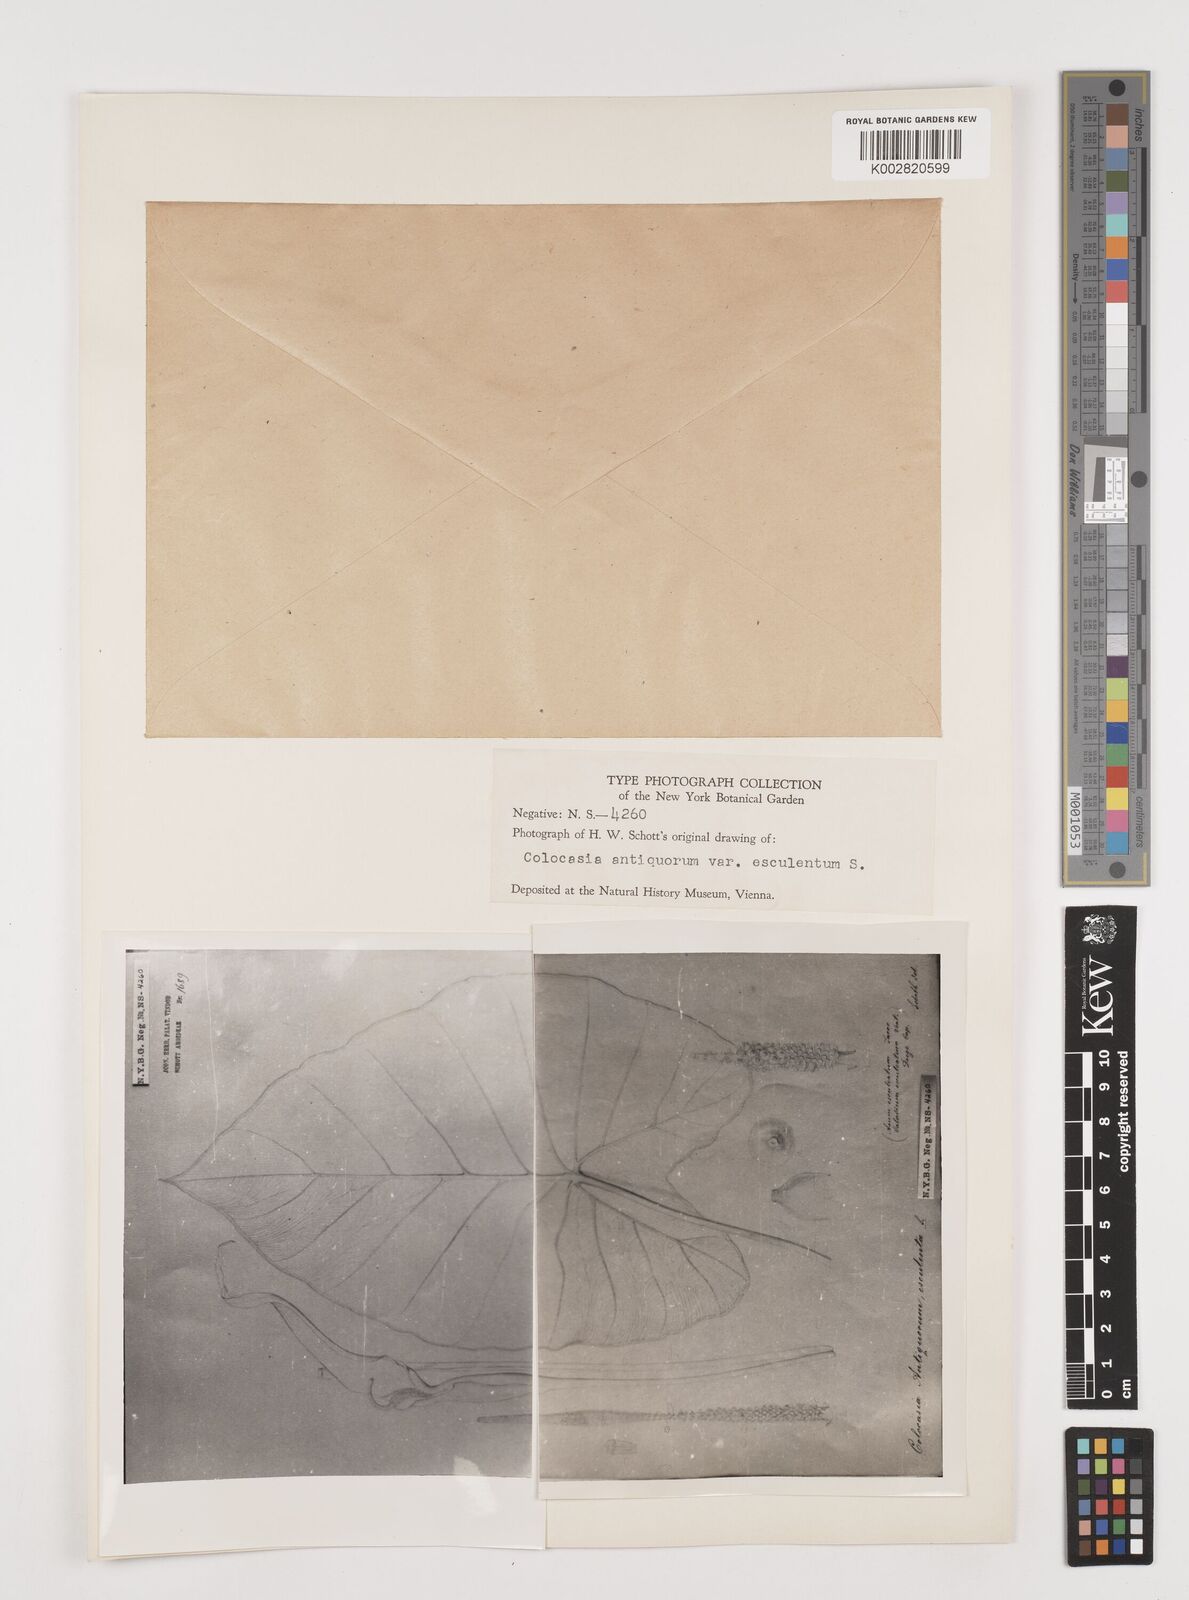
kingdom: Plantae
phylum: Tracheophyta
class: Liliopsida
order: Alismatales
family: Araceae
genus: Colocasia
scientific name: Colocasia esculenta
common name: Taro
